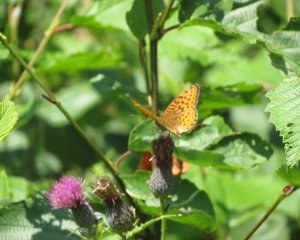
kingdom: Animalia
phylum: Arthropoda
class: Insecta
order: Lepidoptera
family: Nymphalidae
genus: Speyeria
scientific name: Speyeria atlantis
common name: Atlantis Fritillary
